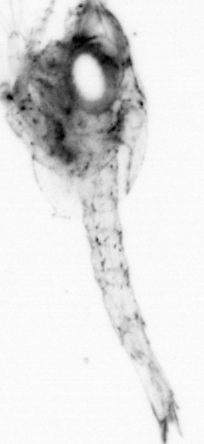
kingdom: Animalia
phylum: Arthropoda
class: Malacostraca
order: Decapoda
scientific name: Decapoda
